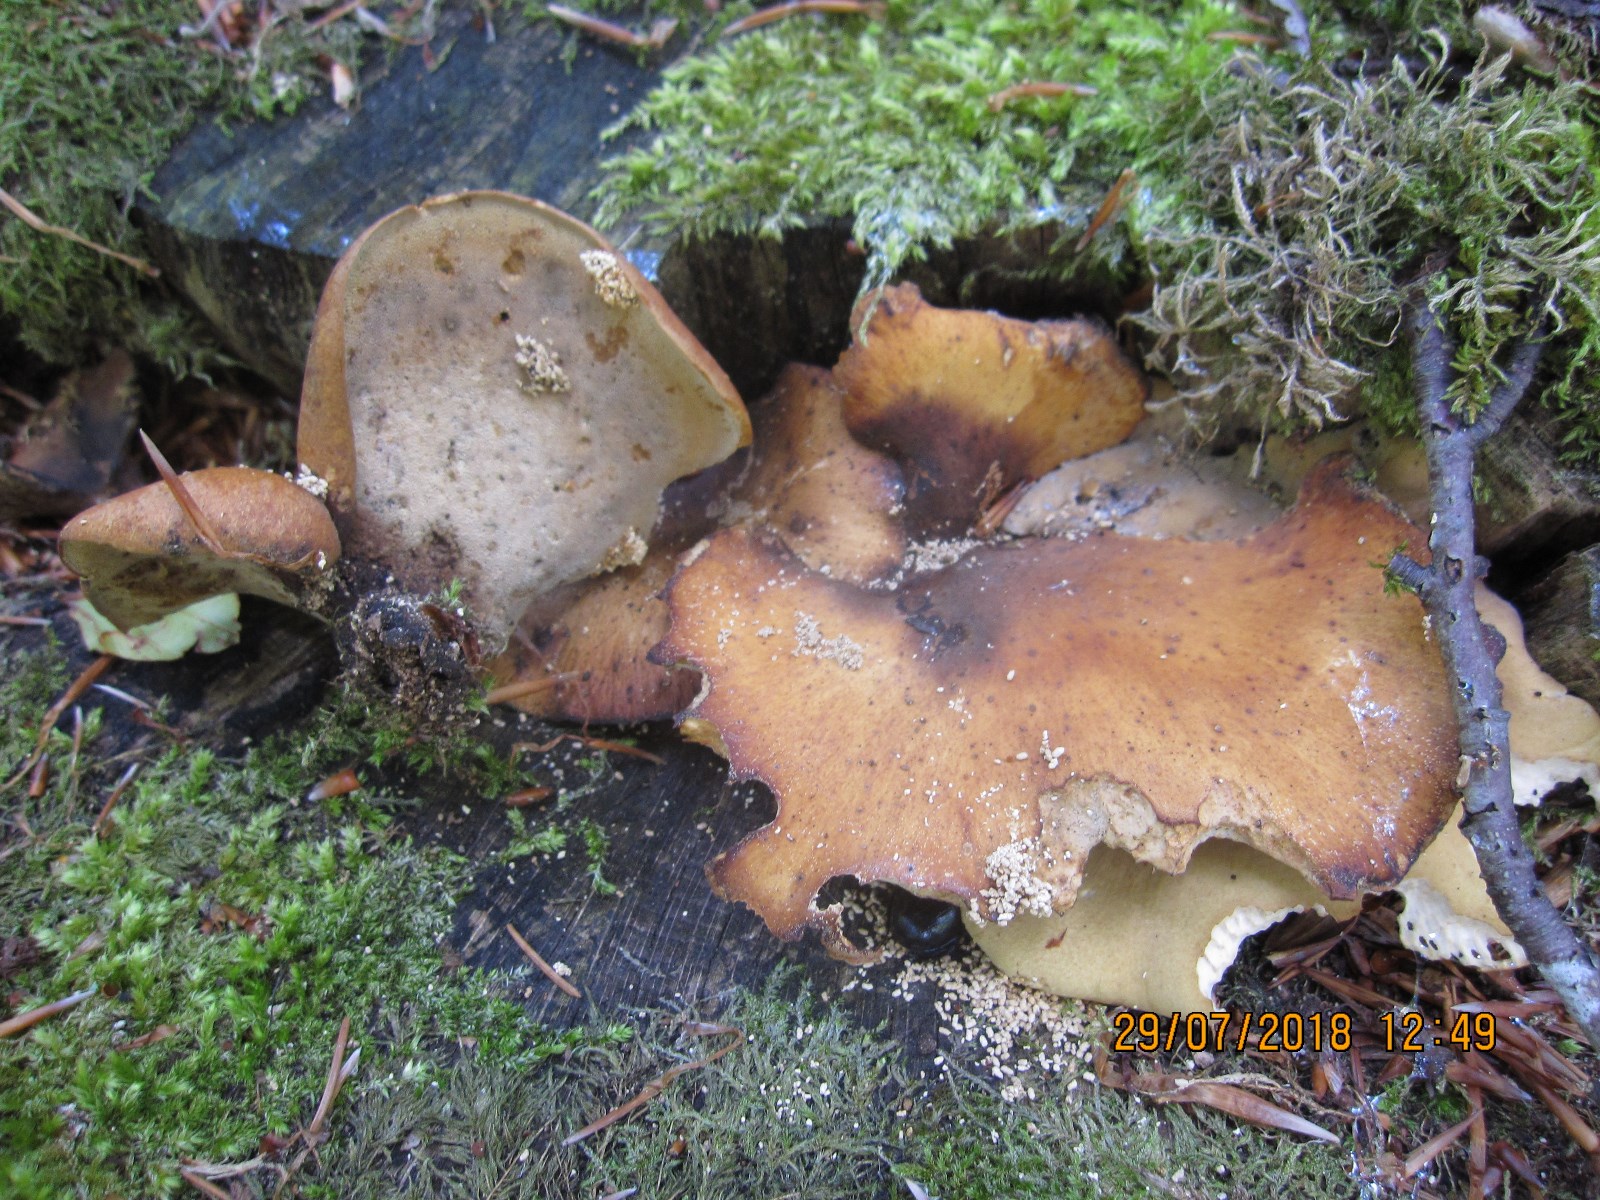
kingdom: Fungi
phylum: Basidiomycota
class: Agaricomycetes
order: Polyporales
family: Polyporaceae
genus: Cerioporus
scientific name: Cerioporus varius
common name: foranderlig stilkporesvamp
